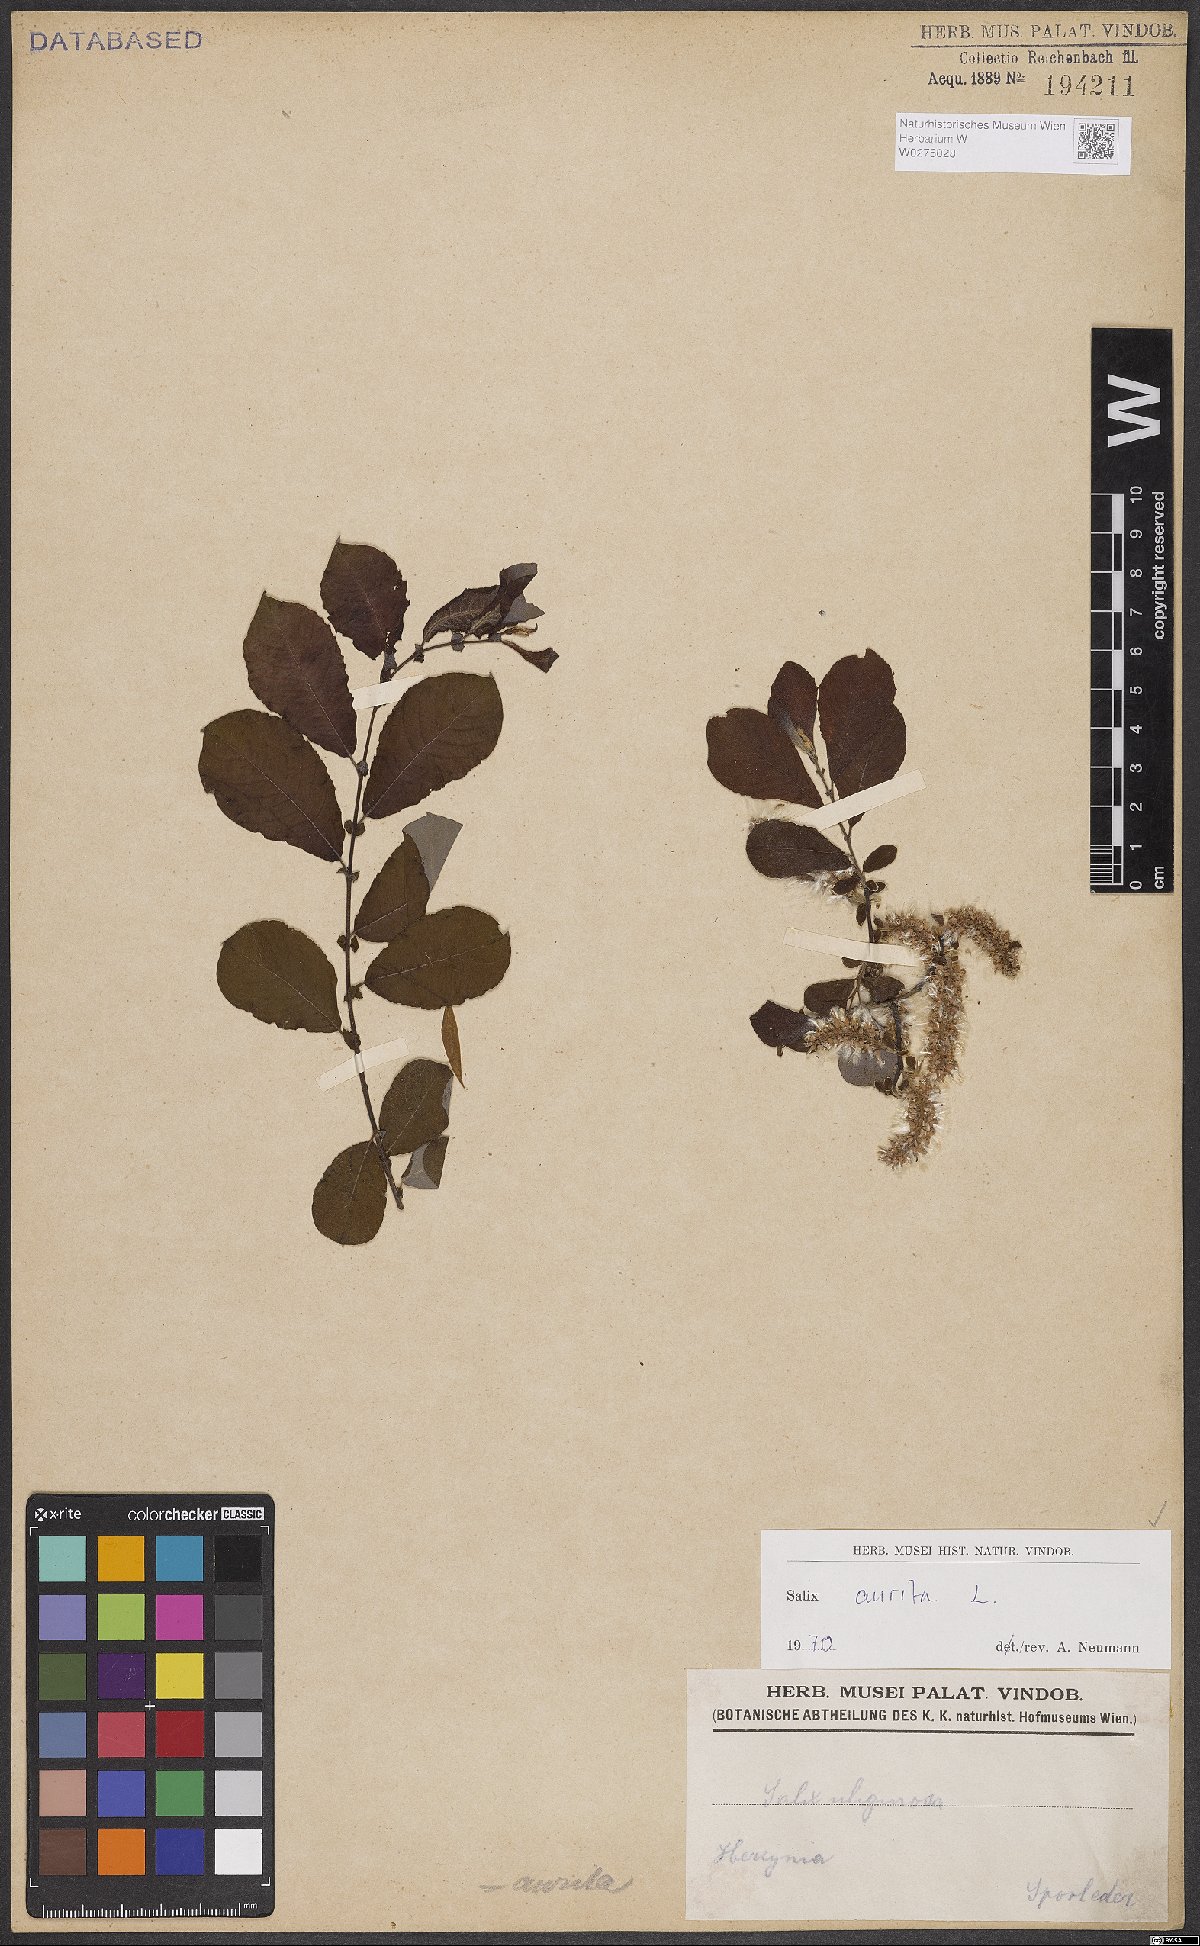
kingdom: Plantae
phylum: Tracheophyta
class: Magnoliopsida
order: Malpighiales
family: Salicaceae
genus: Salix
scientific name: Salix aurita
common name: Eared willow
